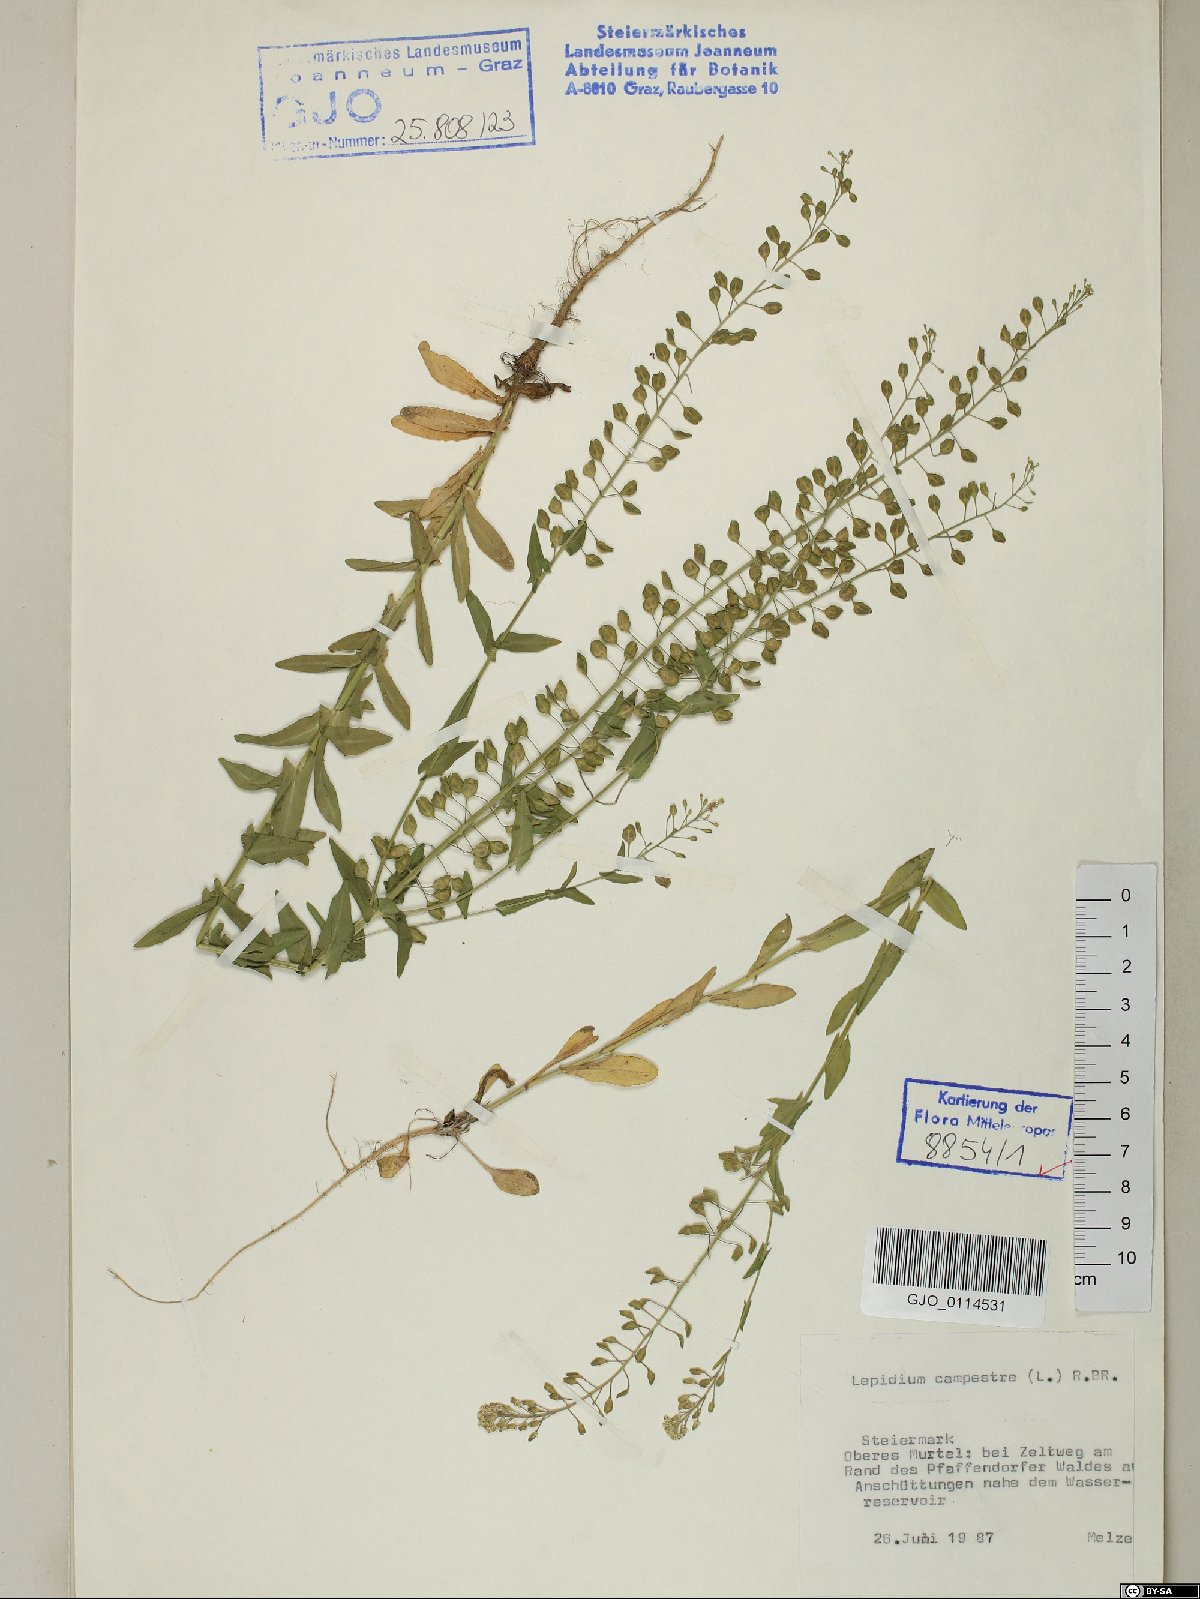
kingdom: Plantae
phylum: Tracheophyta
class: Magnoliopsida
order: Brassicales
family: Brassicaceae
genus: Lepidium
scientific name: Lepidium campestre
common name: Field pepperwort
